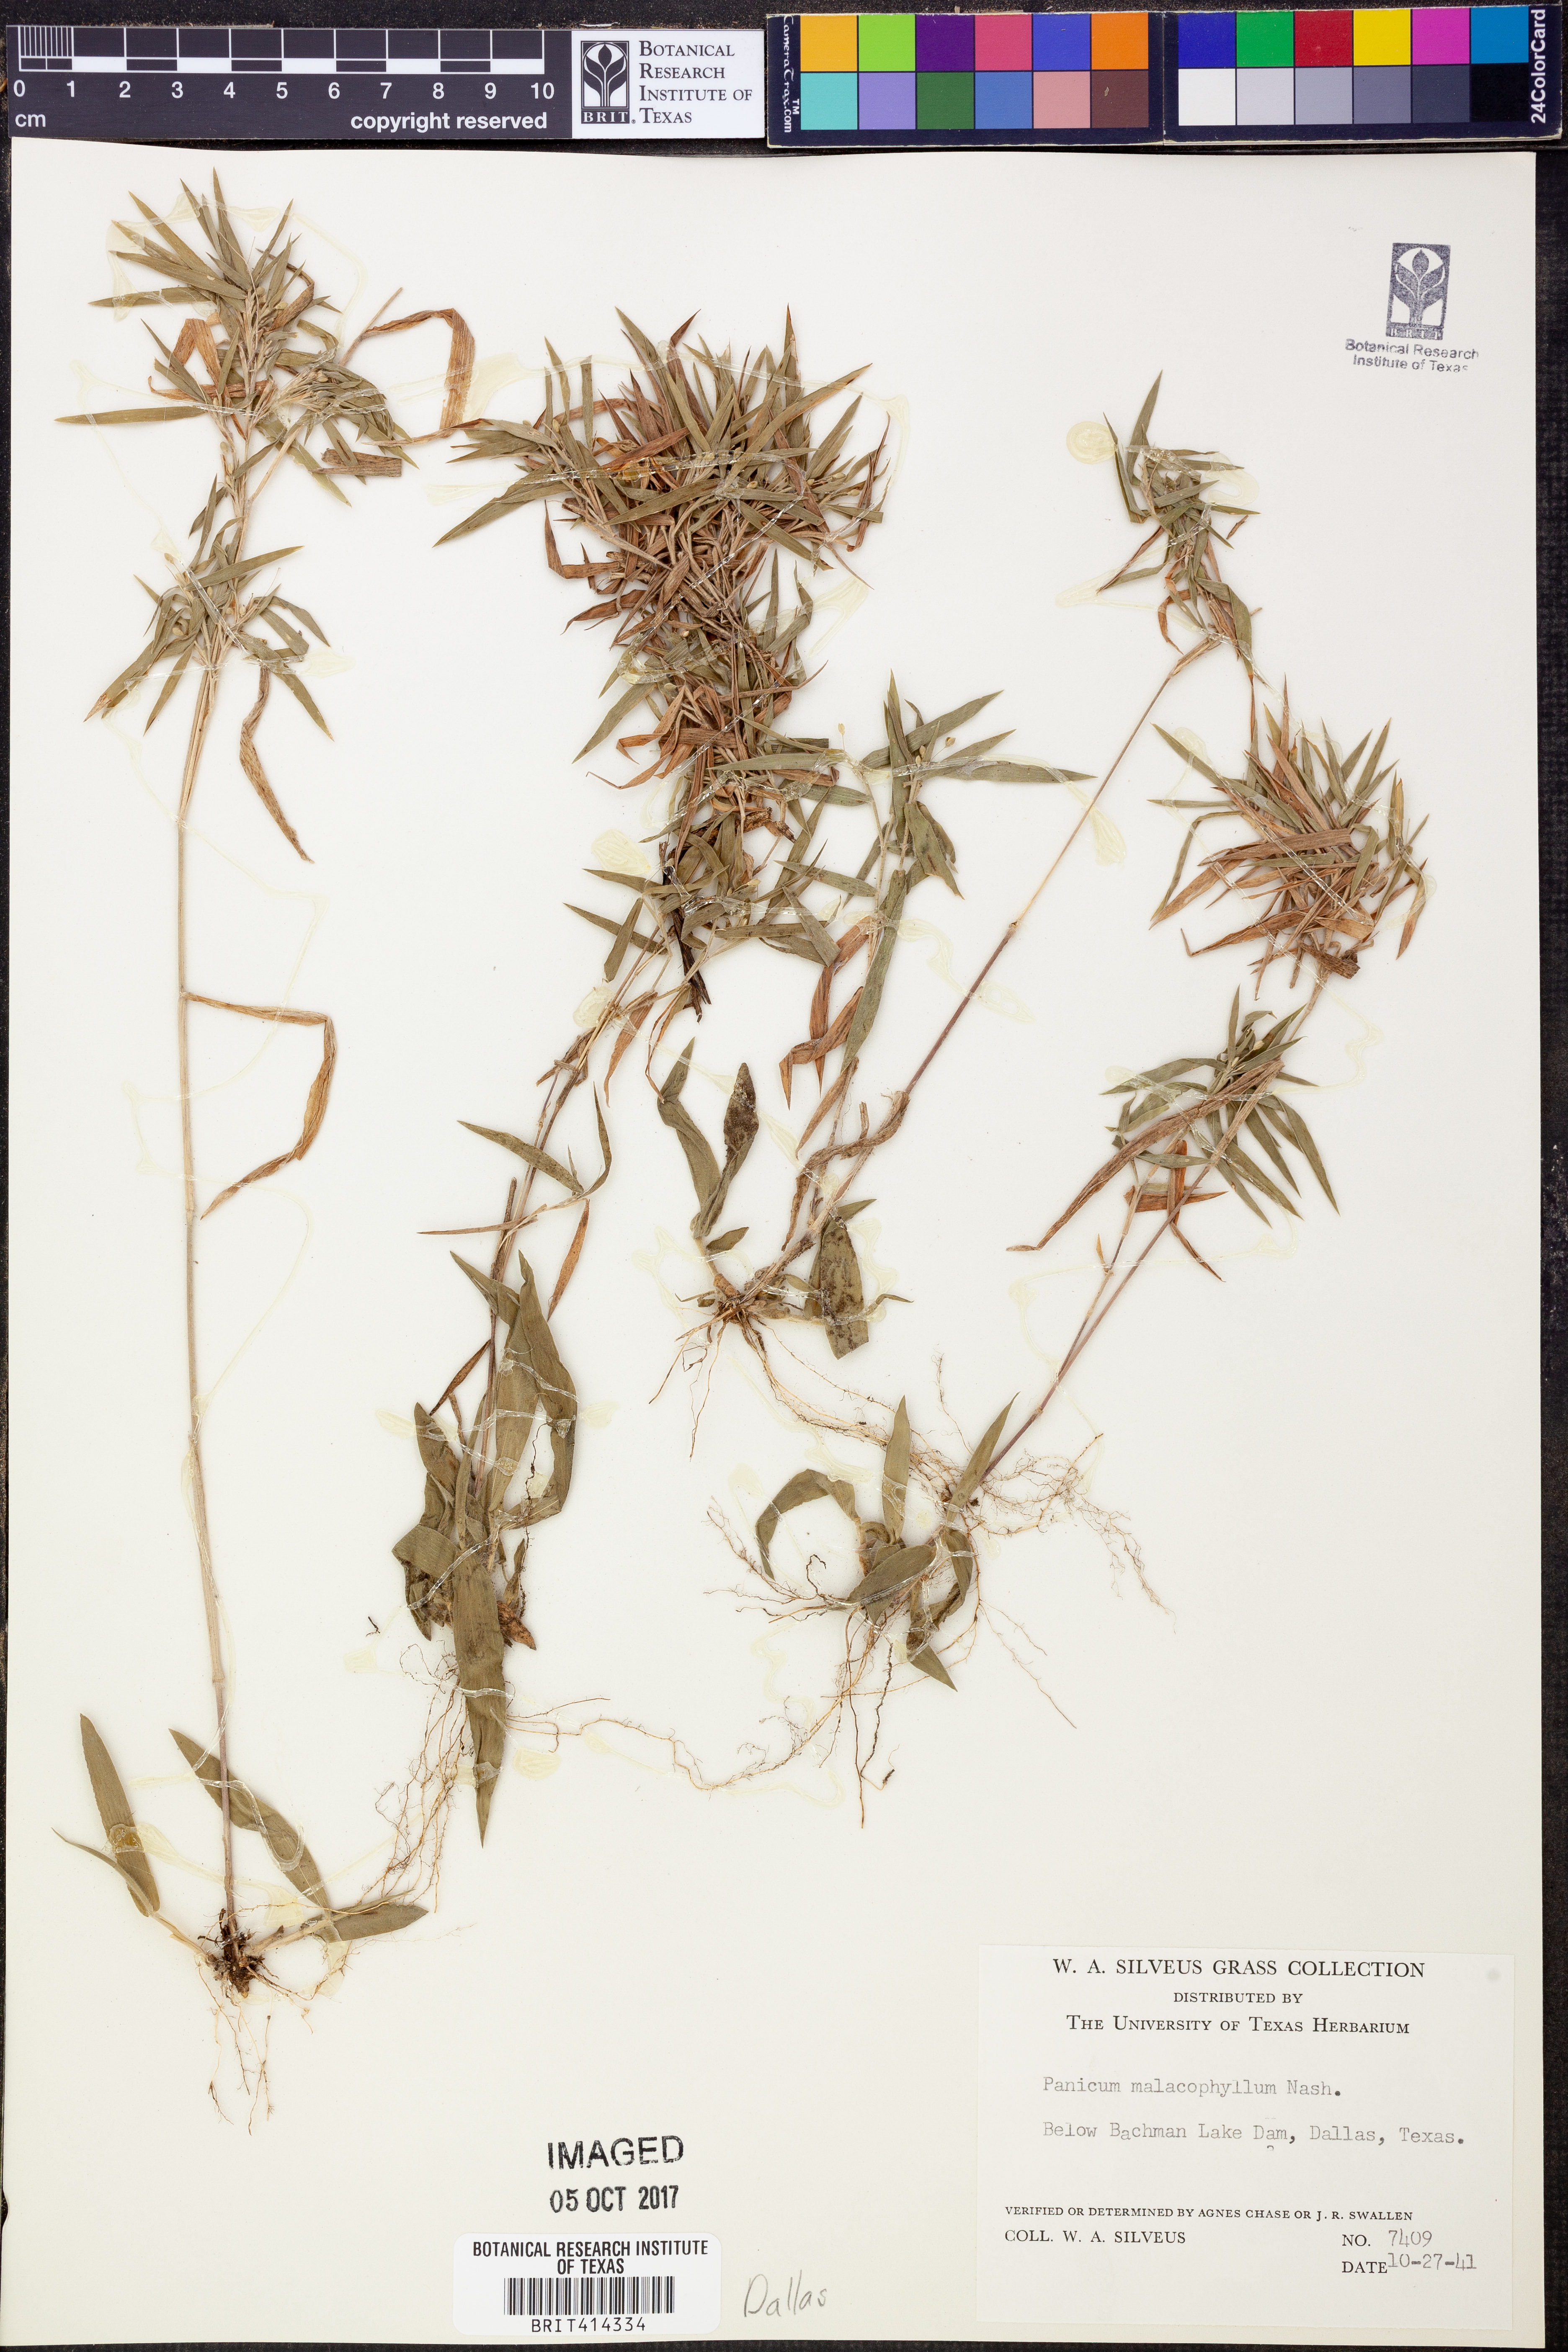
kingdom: Plantae
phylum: Tracheophyta
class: Liliopsida
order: Poales
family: Poaceae
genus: Dichanthelium
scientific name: Dichanthelium malacophyllum
